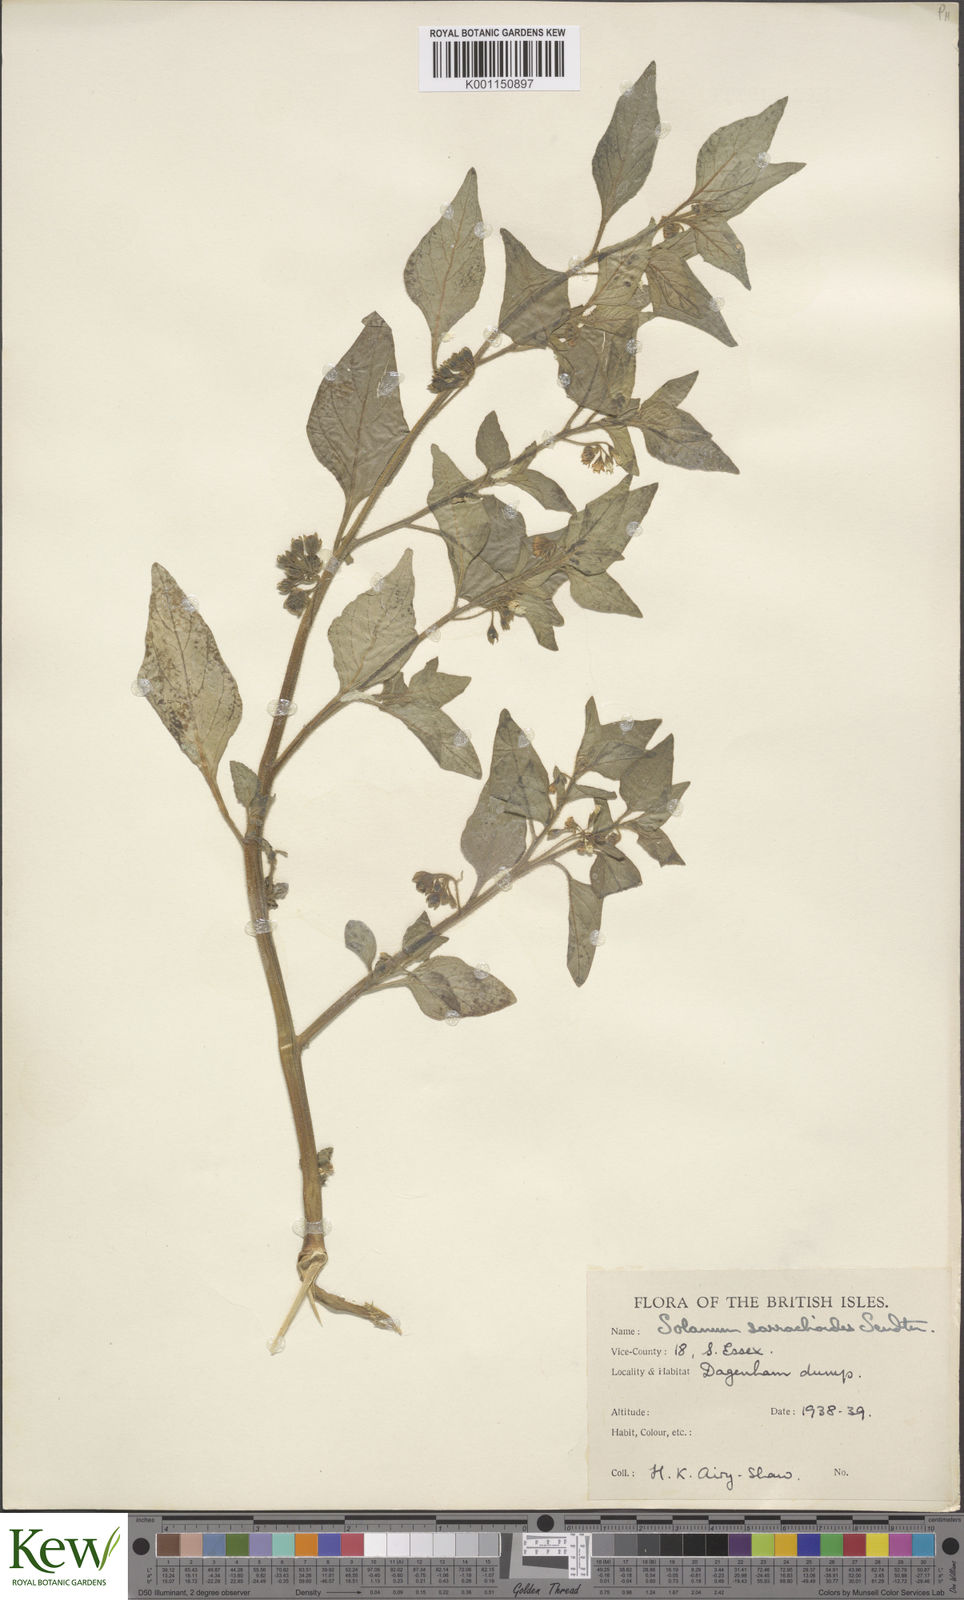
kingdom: Plantae
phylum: Tracheophyta
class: Magnoliopsida
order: Solanales
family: Solanaceae
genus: Solanum
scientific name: Solanum nitidibaccatum
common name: Hairy nightshade
